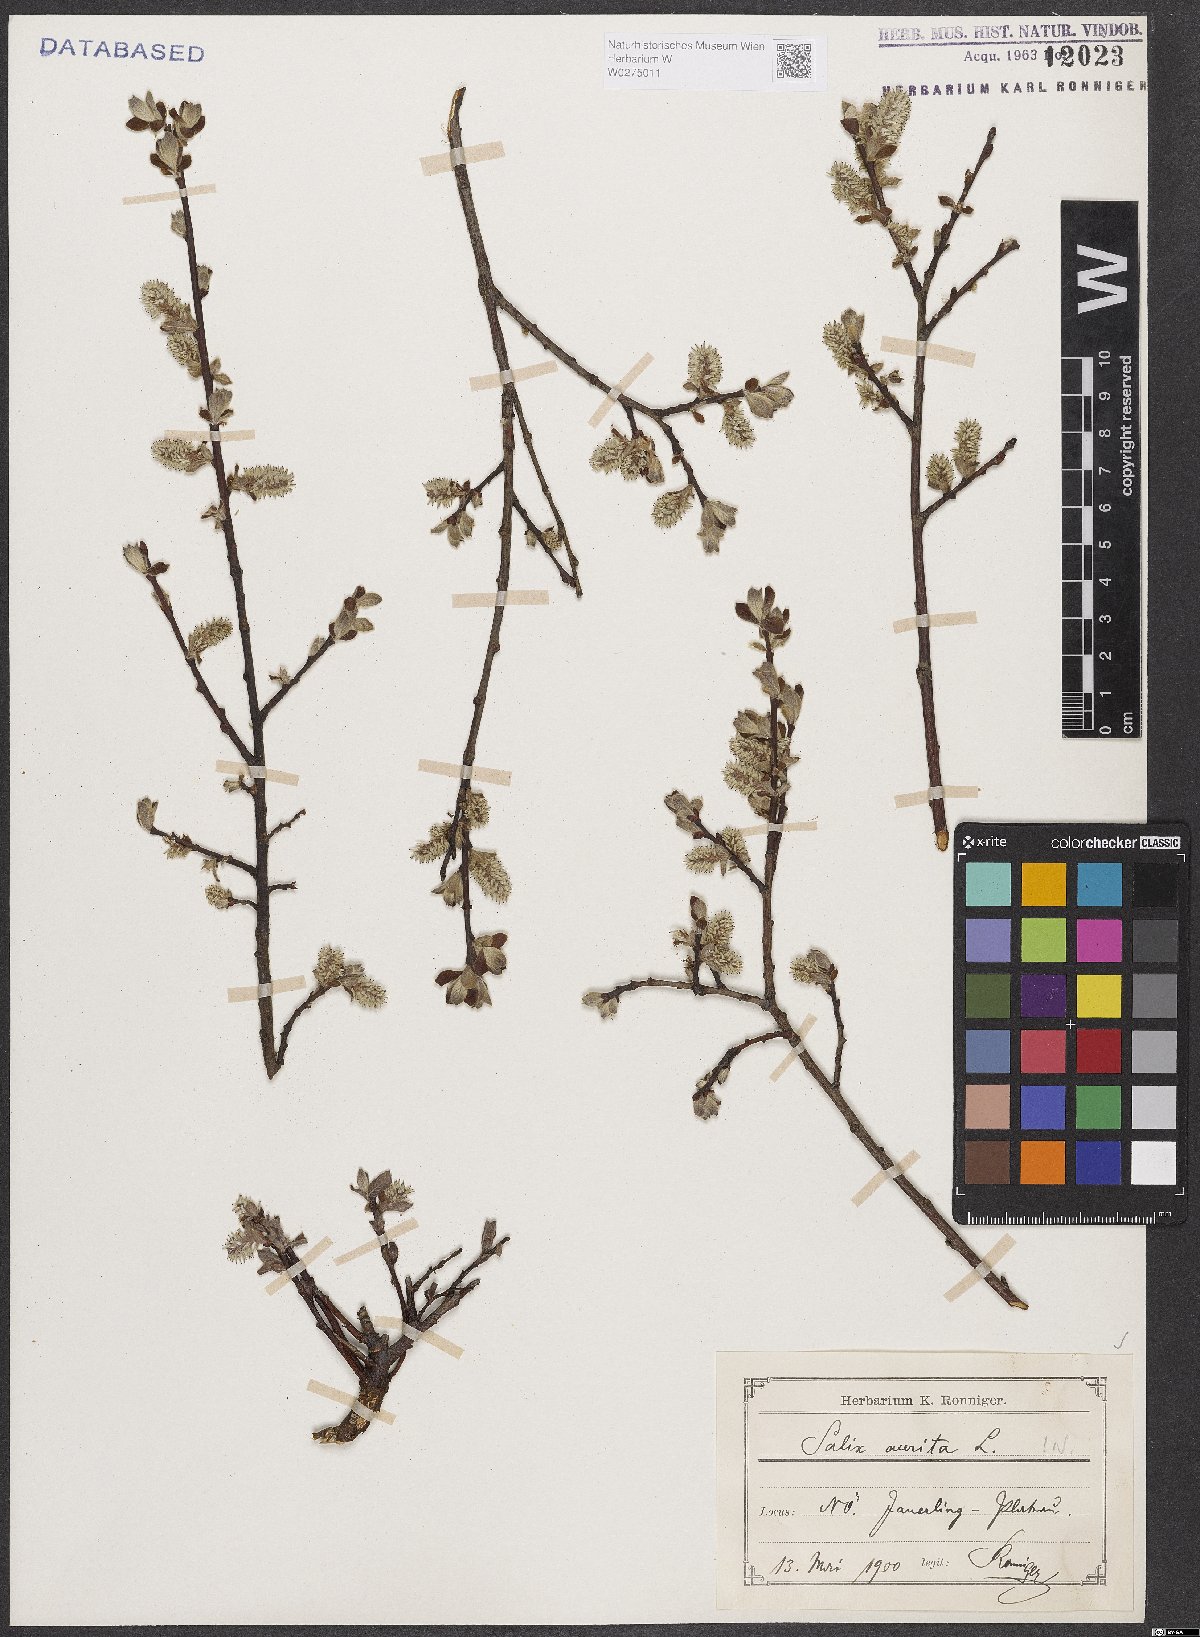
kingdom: Plantae
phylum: Tracheophyta
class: Magnoliopsida
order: Malpighiales
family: Salicaceae
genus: Salix
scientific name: Salix aurita
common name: Eared willow
